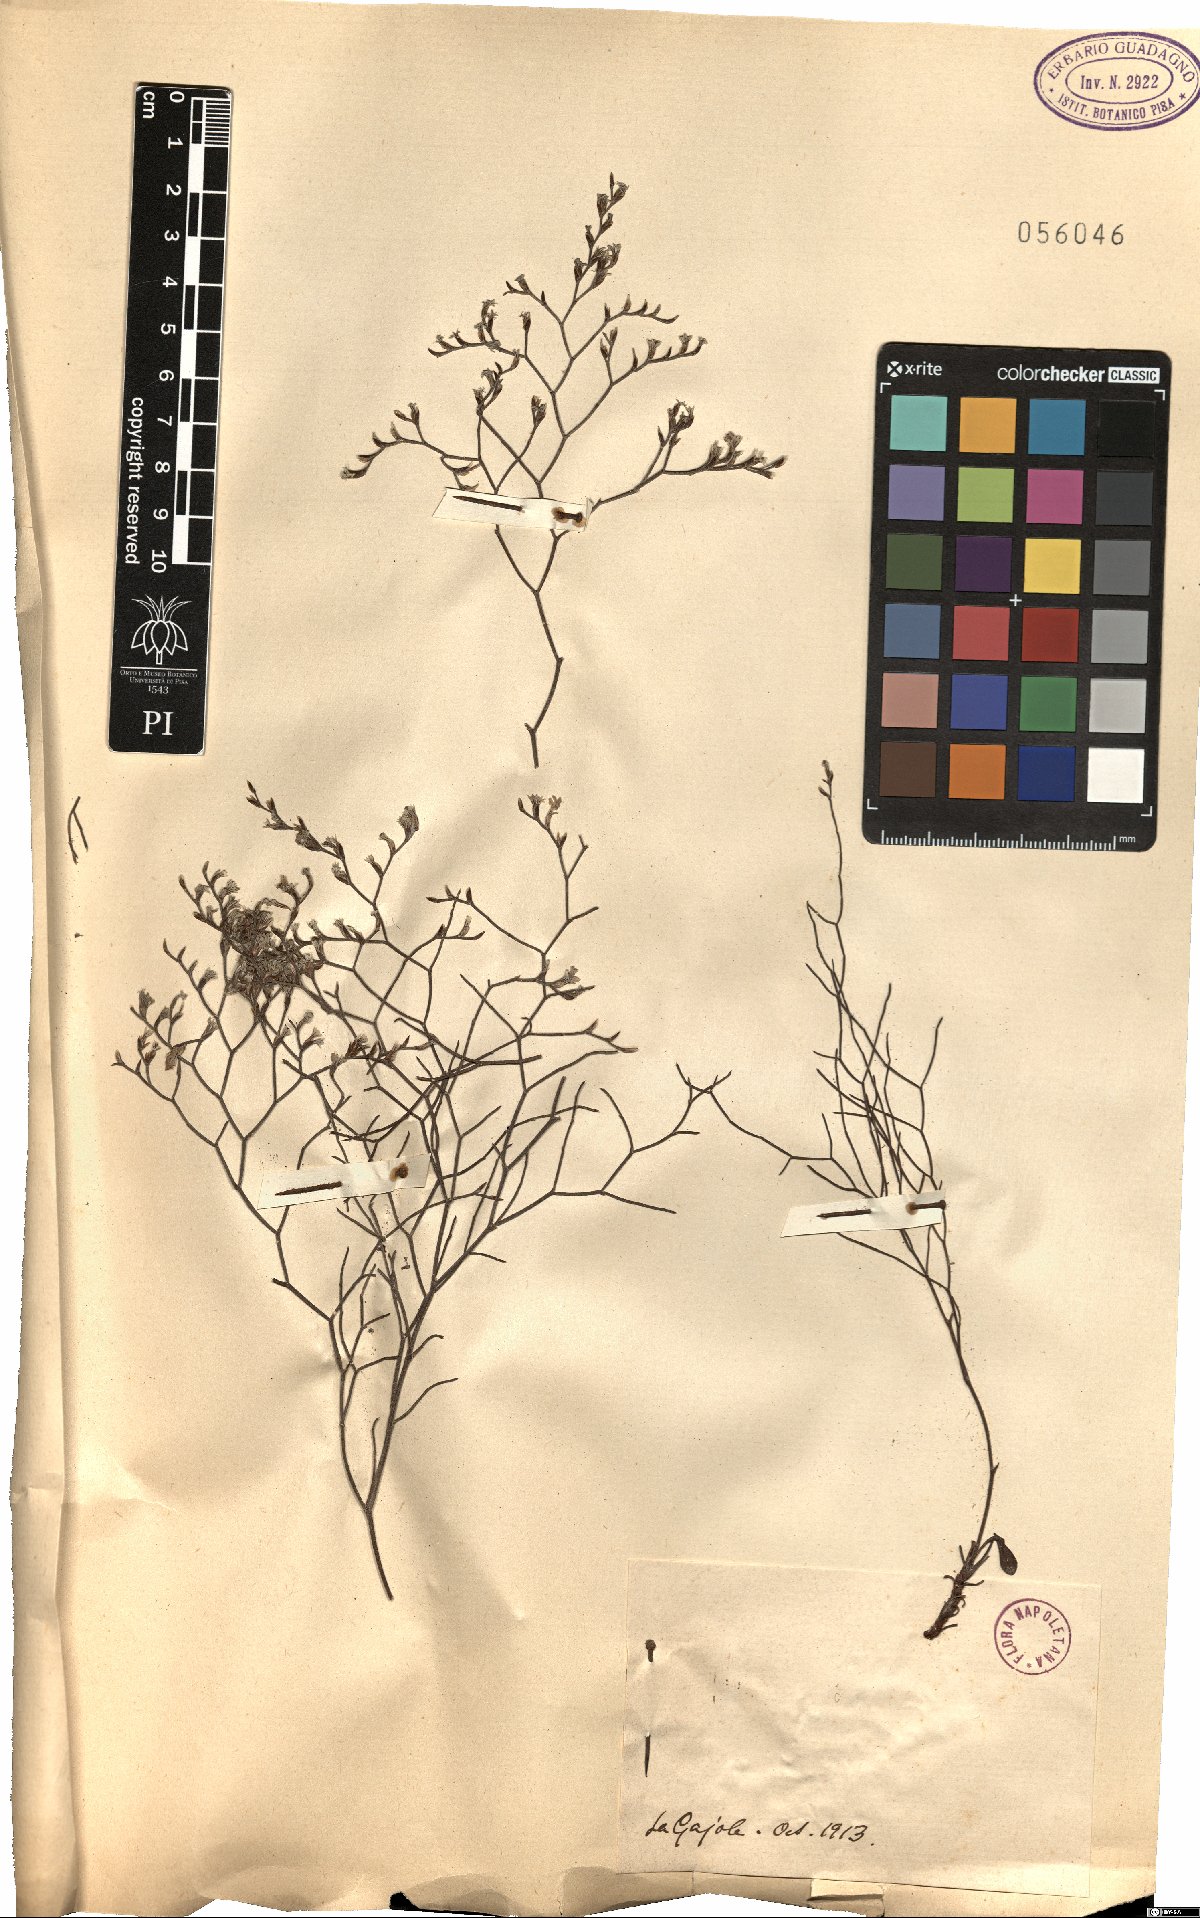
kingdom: Plantae
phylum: Tracheophyta
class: Magnoliopsida
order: Caryophyllales
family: Plumbaginaceae
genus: Armeria
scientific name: Armeria
